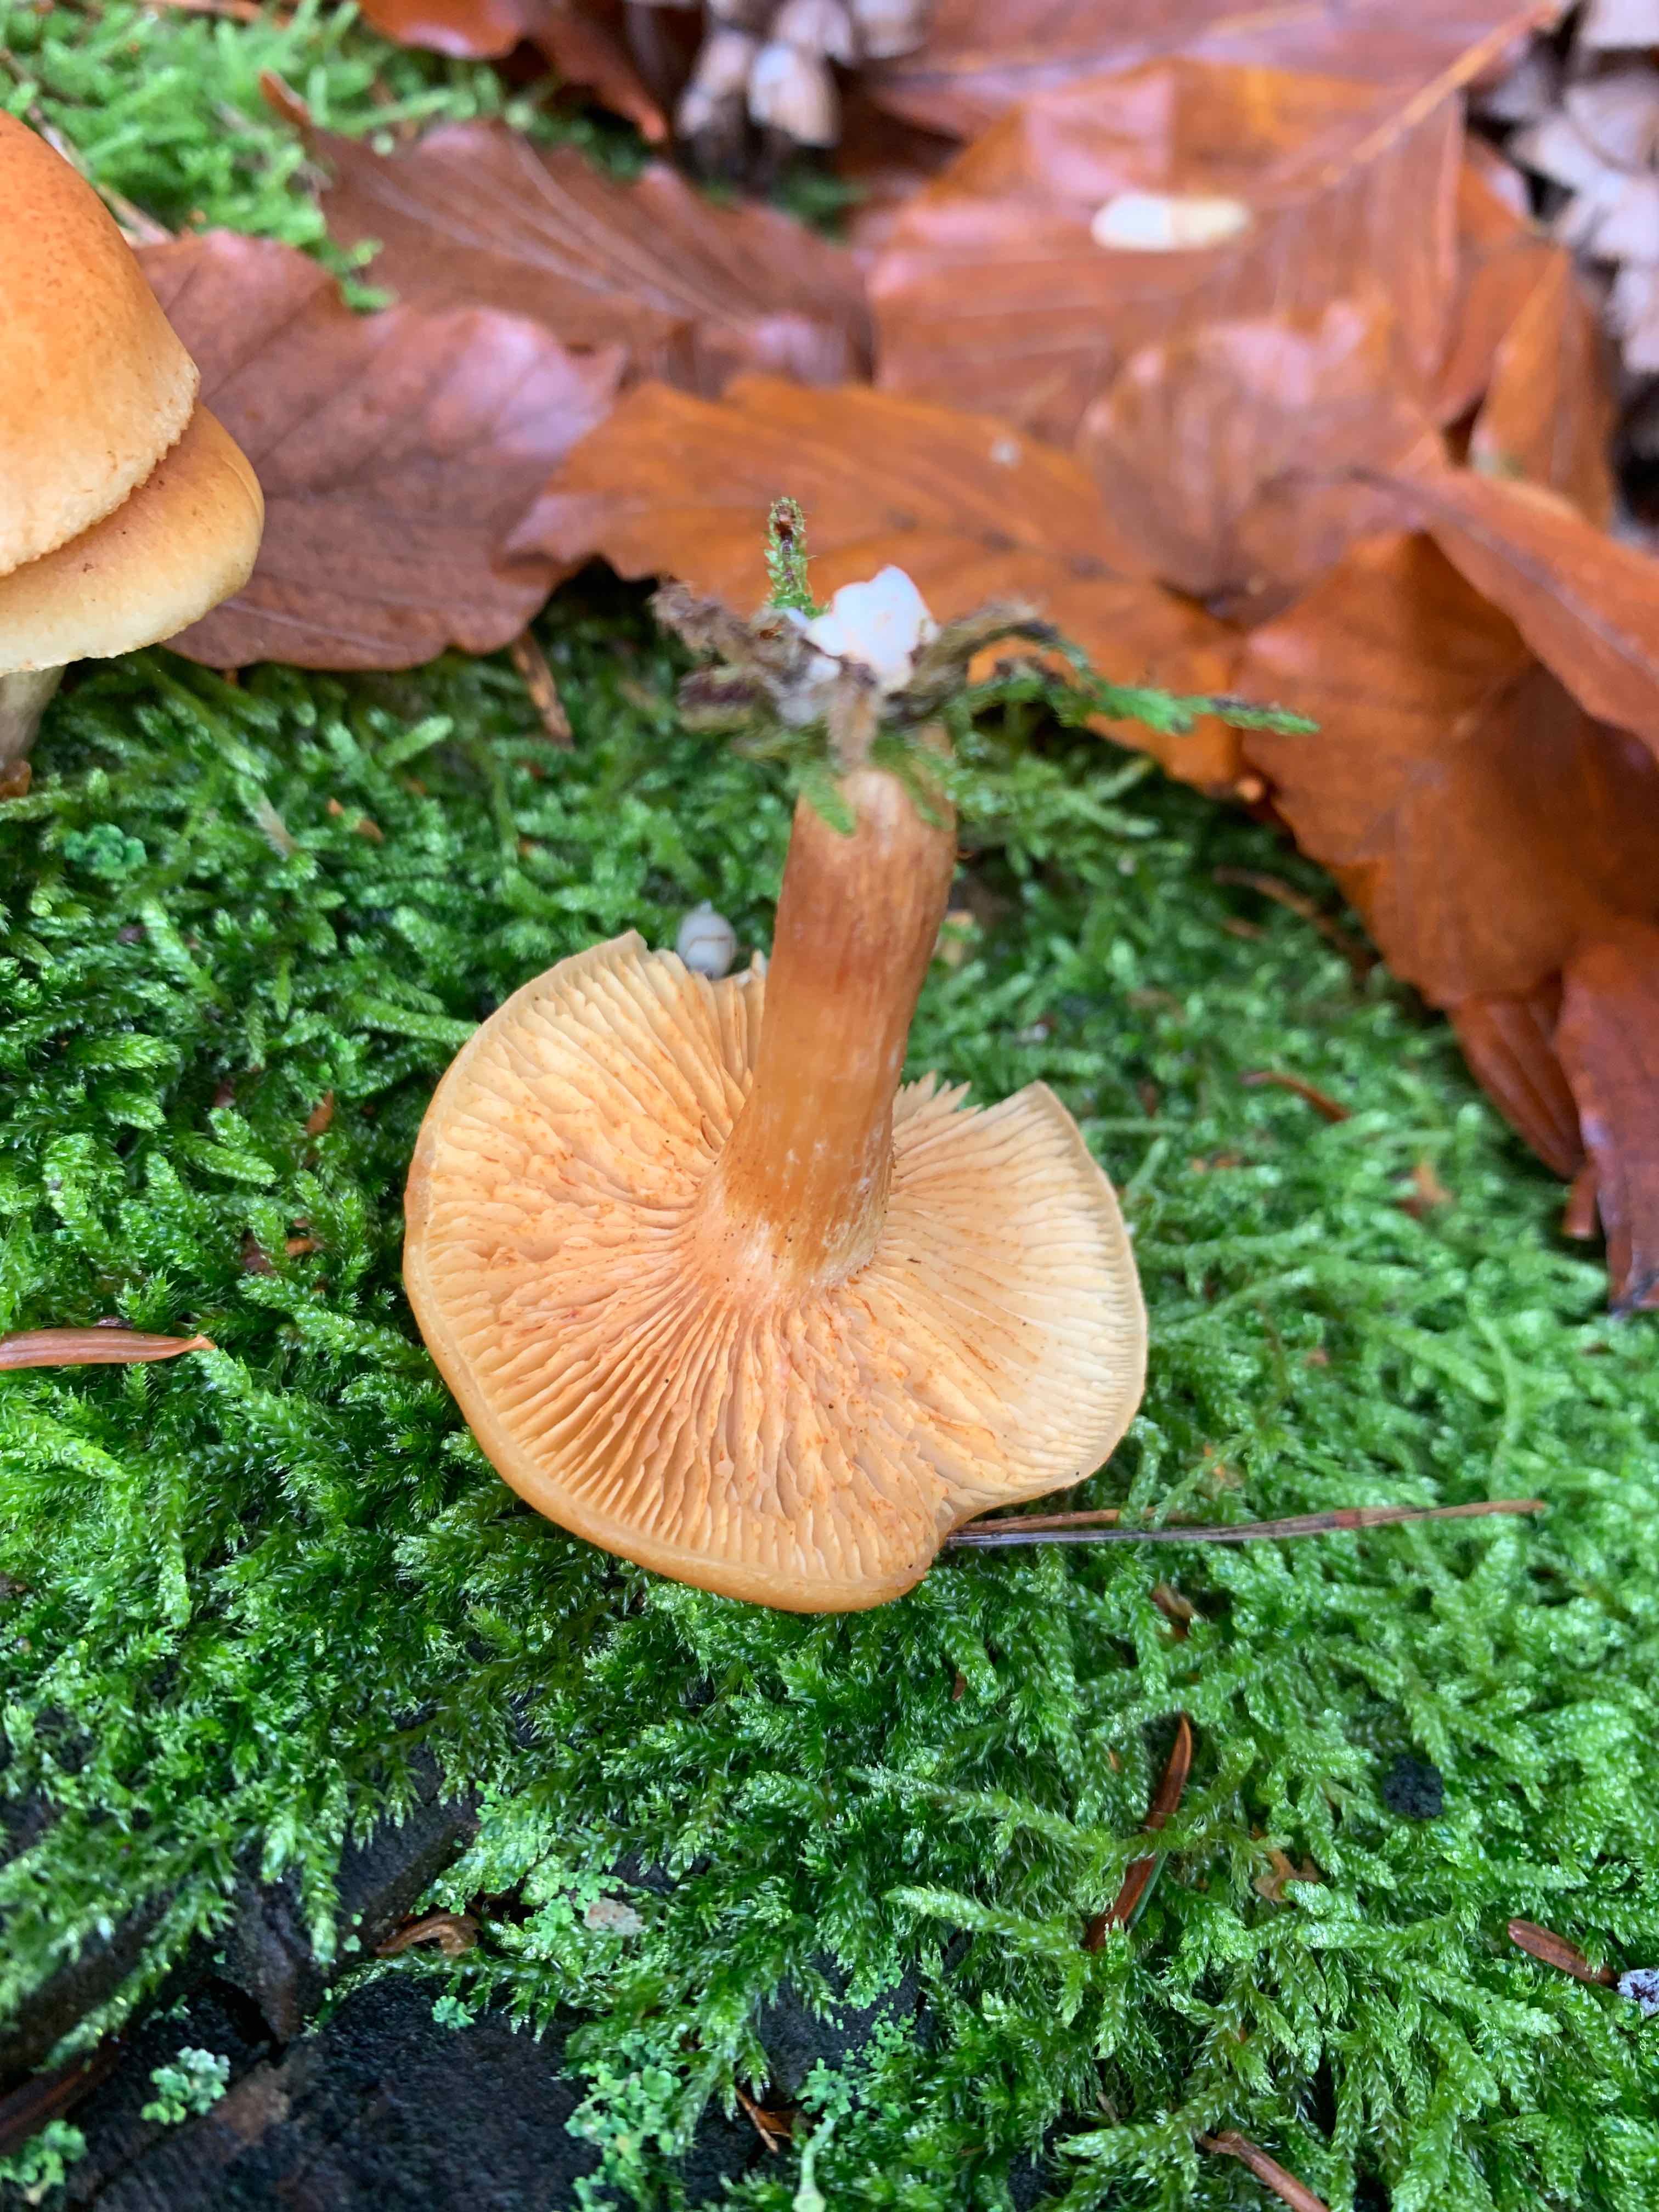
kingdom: Fungi
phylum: Basidiomycota
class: Agaricomycetes
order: Agaricales
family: Hymenogastraceae
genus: Gymnopilus
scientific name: Gymnopilus penetrans
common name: plettet flammehat
